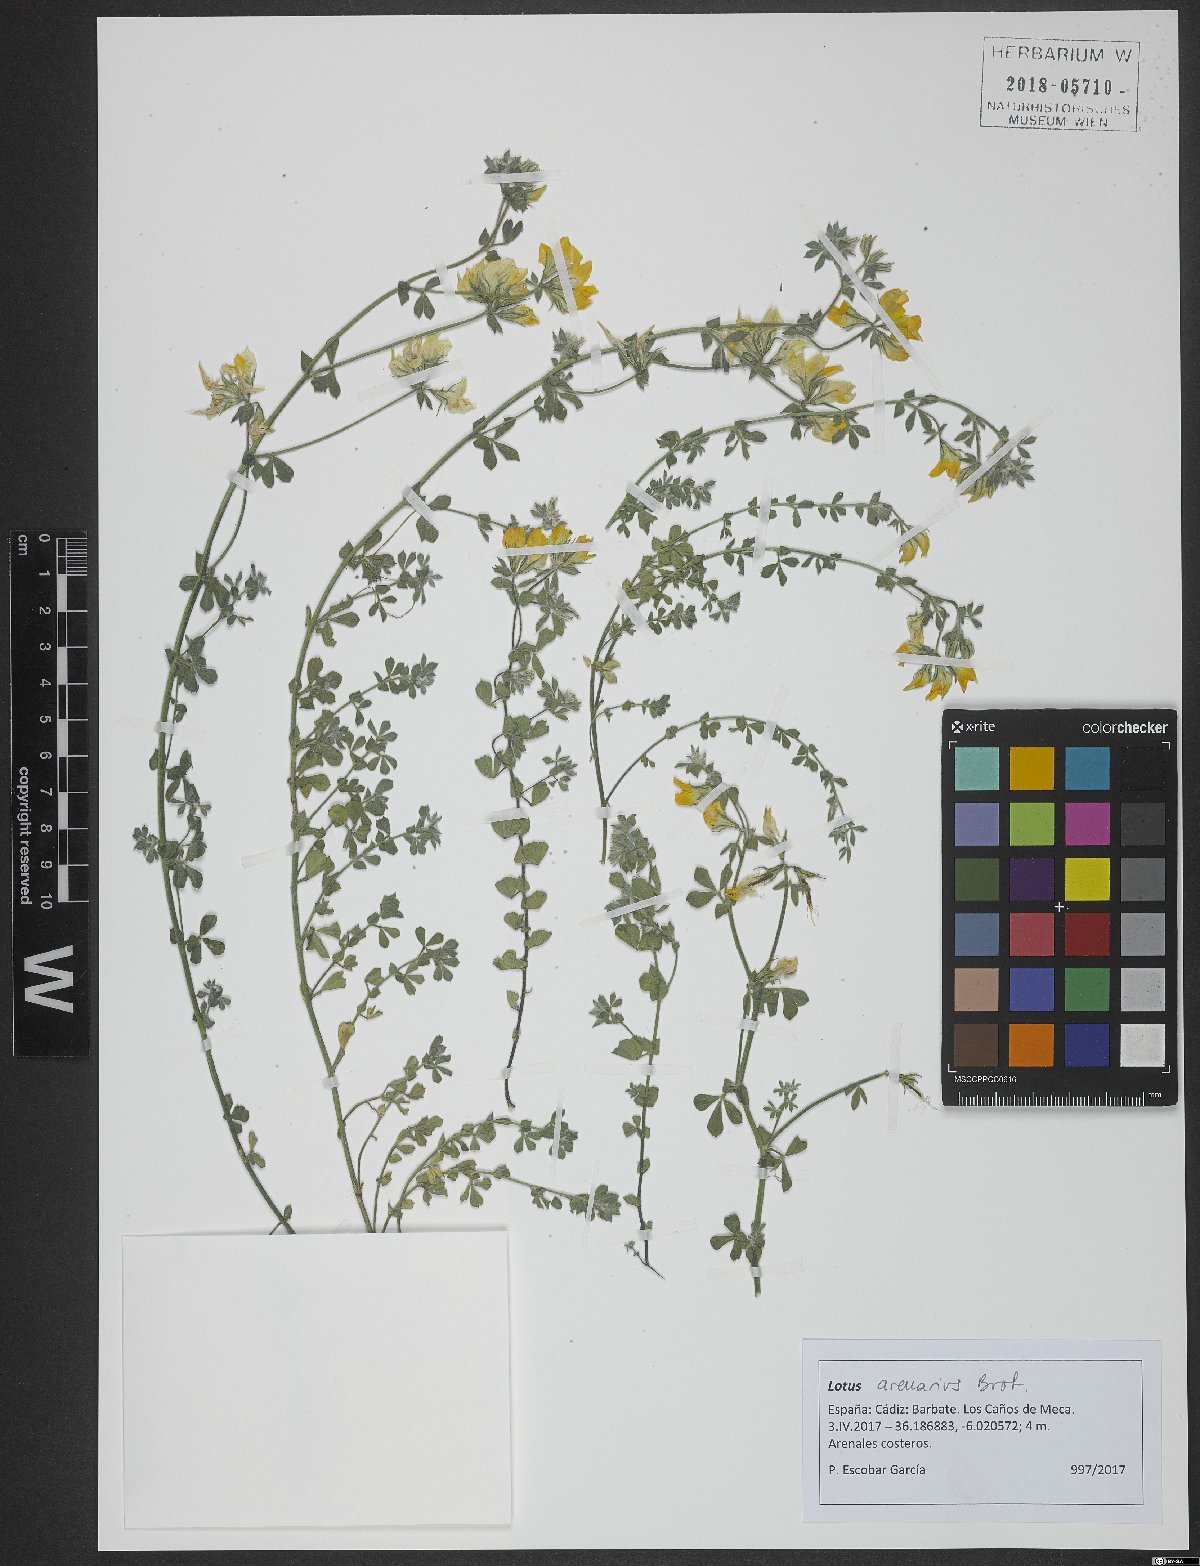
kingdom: Plantae
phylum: Tracheophyta
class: Magnoliopsida
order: Fabales
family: Fabaceae
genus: Lotus
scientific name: Lotus arenarius
